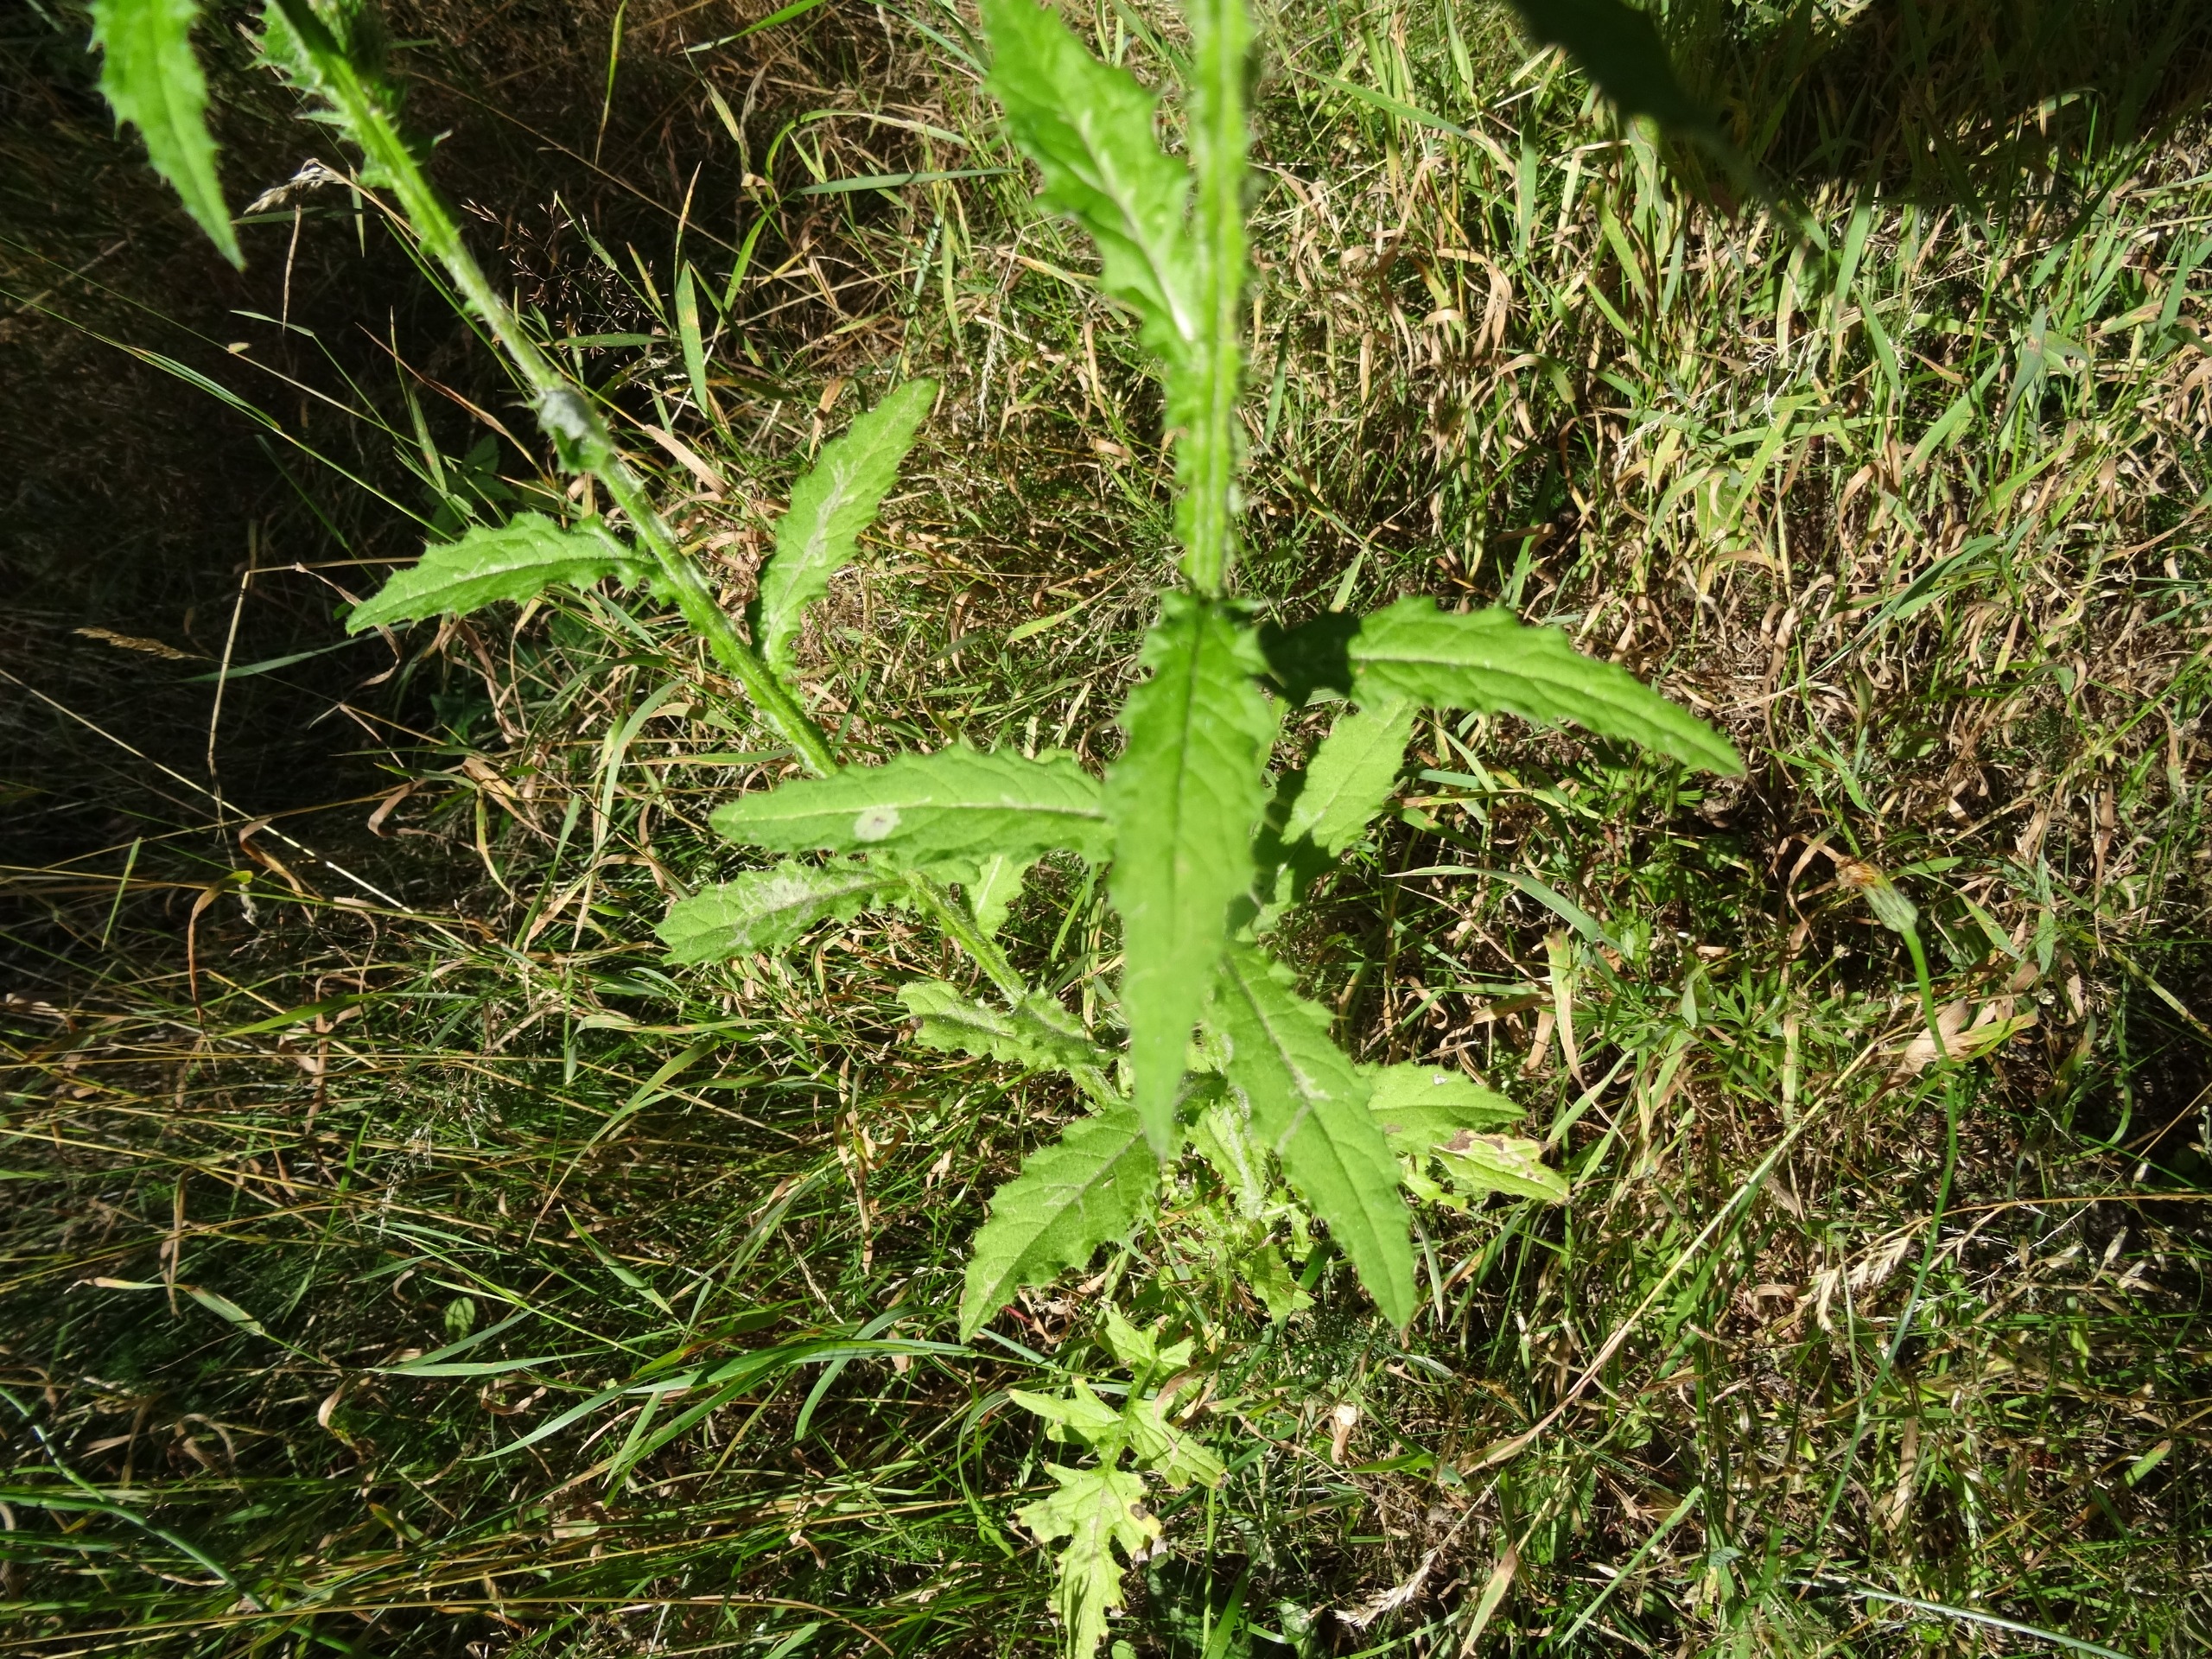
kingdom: Plantae
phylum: Tracheophyta
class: Magnoliopsida
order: Asterales
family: Asteraceae
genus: Carduus
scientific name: Carduus crispus
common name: Kruset tidsel
